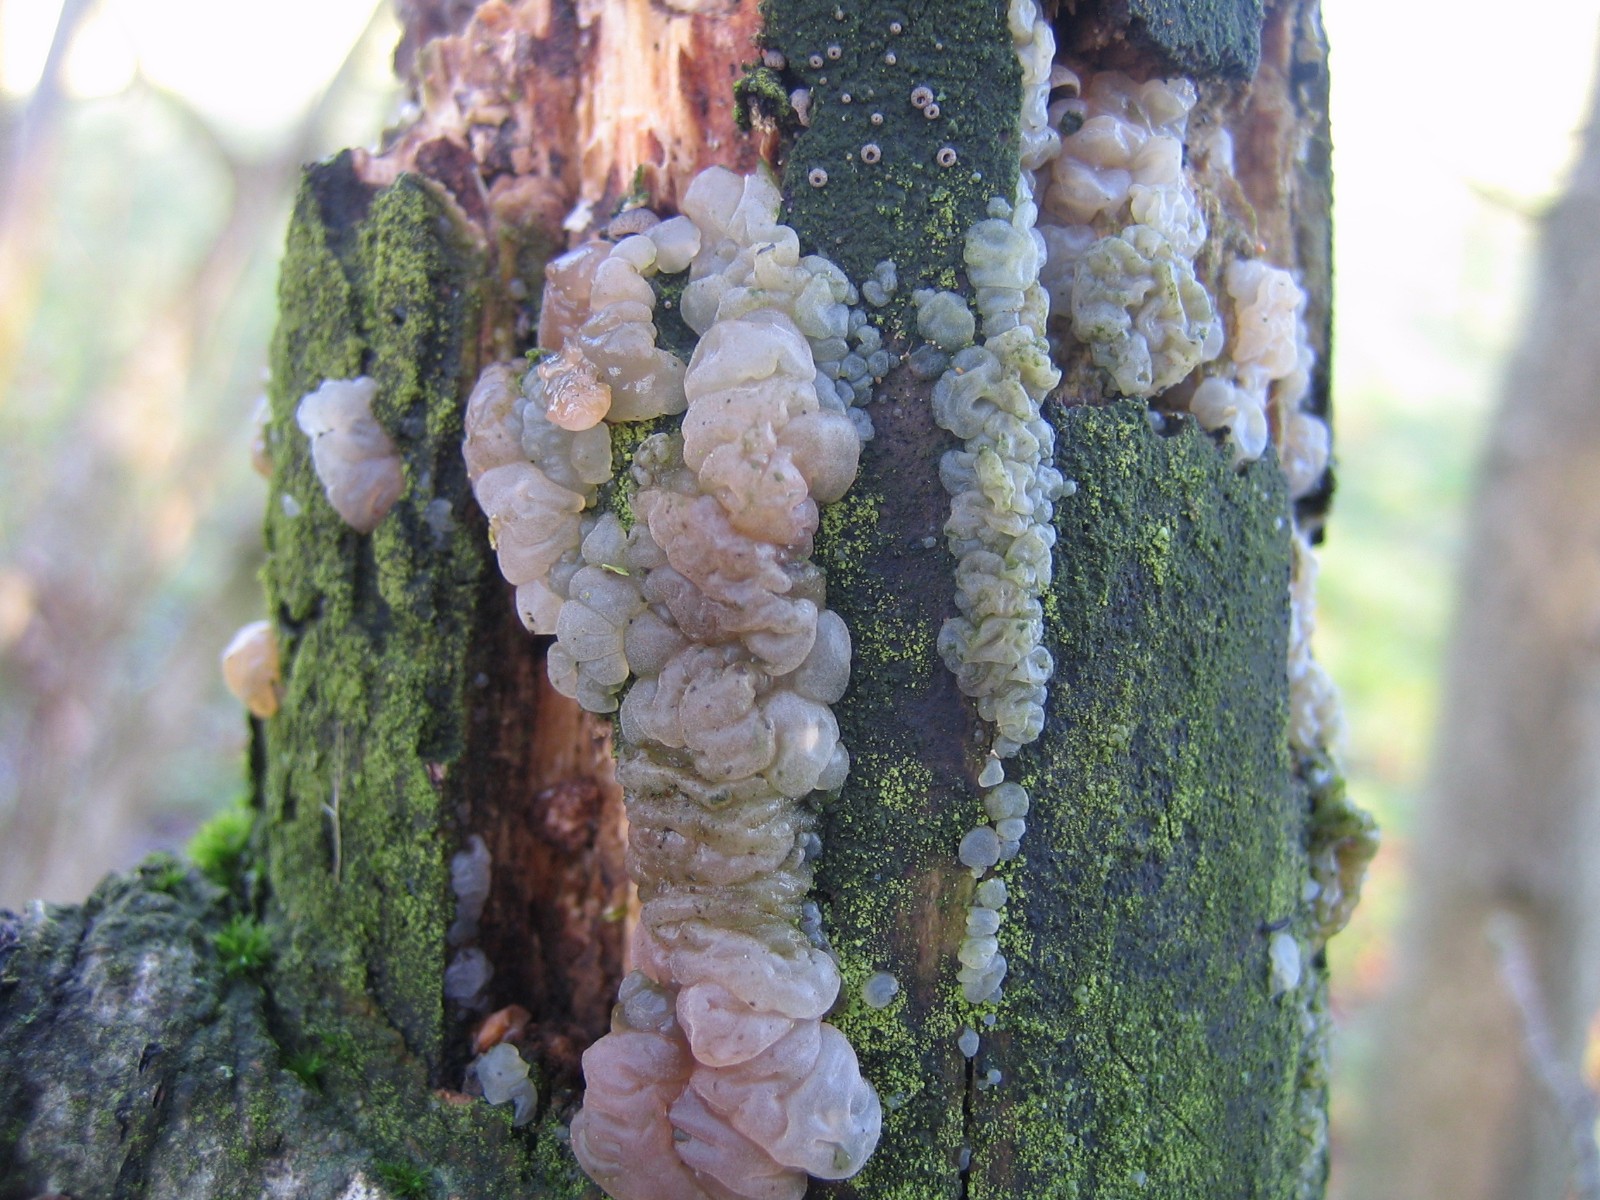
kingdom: Fungi
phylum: Basidiomycota
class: Agaricomycetes
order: Auriculariales
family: Hyaloriaceae
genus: Myxarium
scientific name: Myxarium nucleatum
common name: klar bævretop
